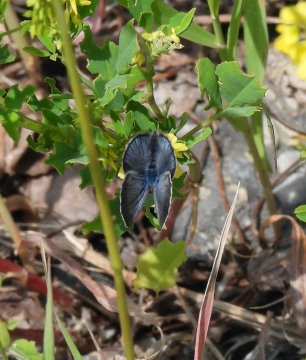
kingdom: Animalia
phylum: Arthropoda
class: Insecta
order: Lepidoptera
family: Lycaenidae
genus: Glaucopsyche
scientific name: Glaucopsyche lygdamus
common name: Silvery Blue
